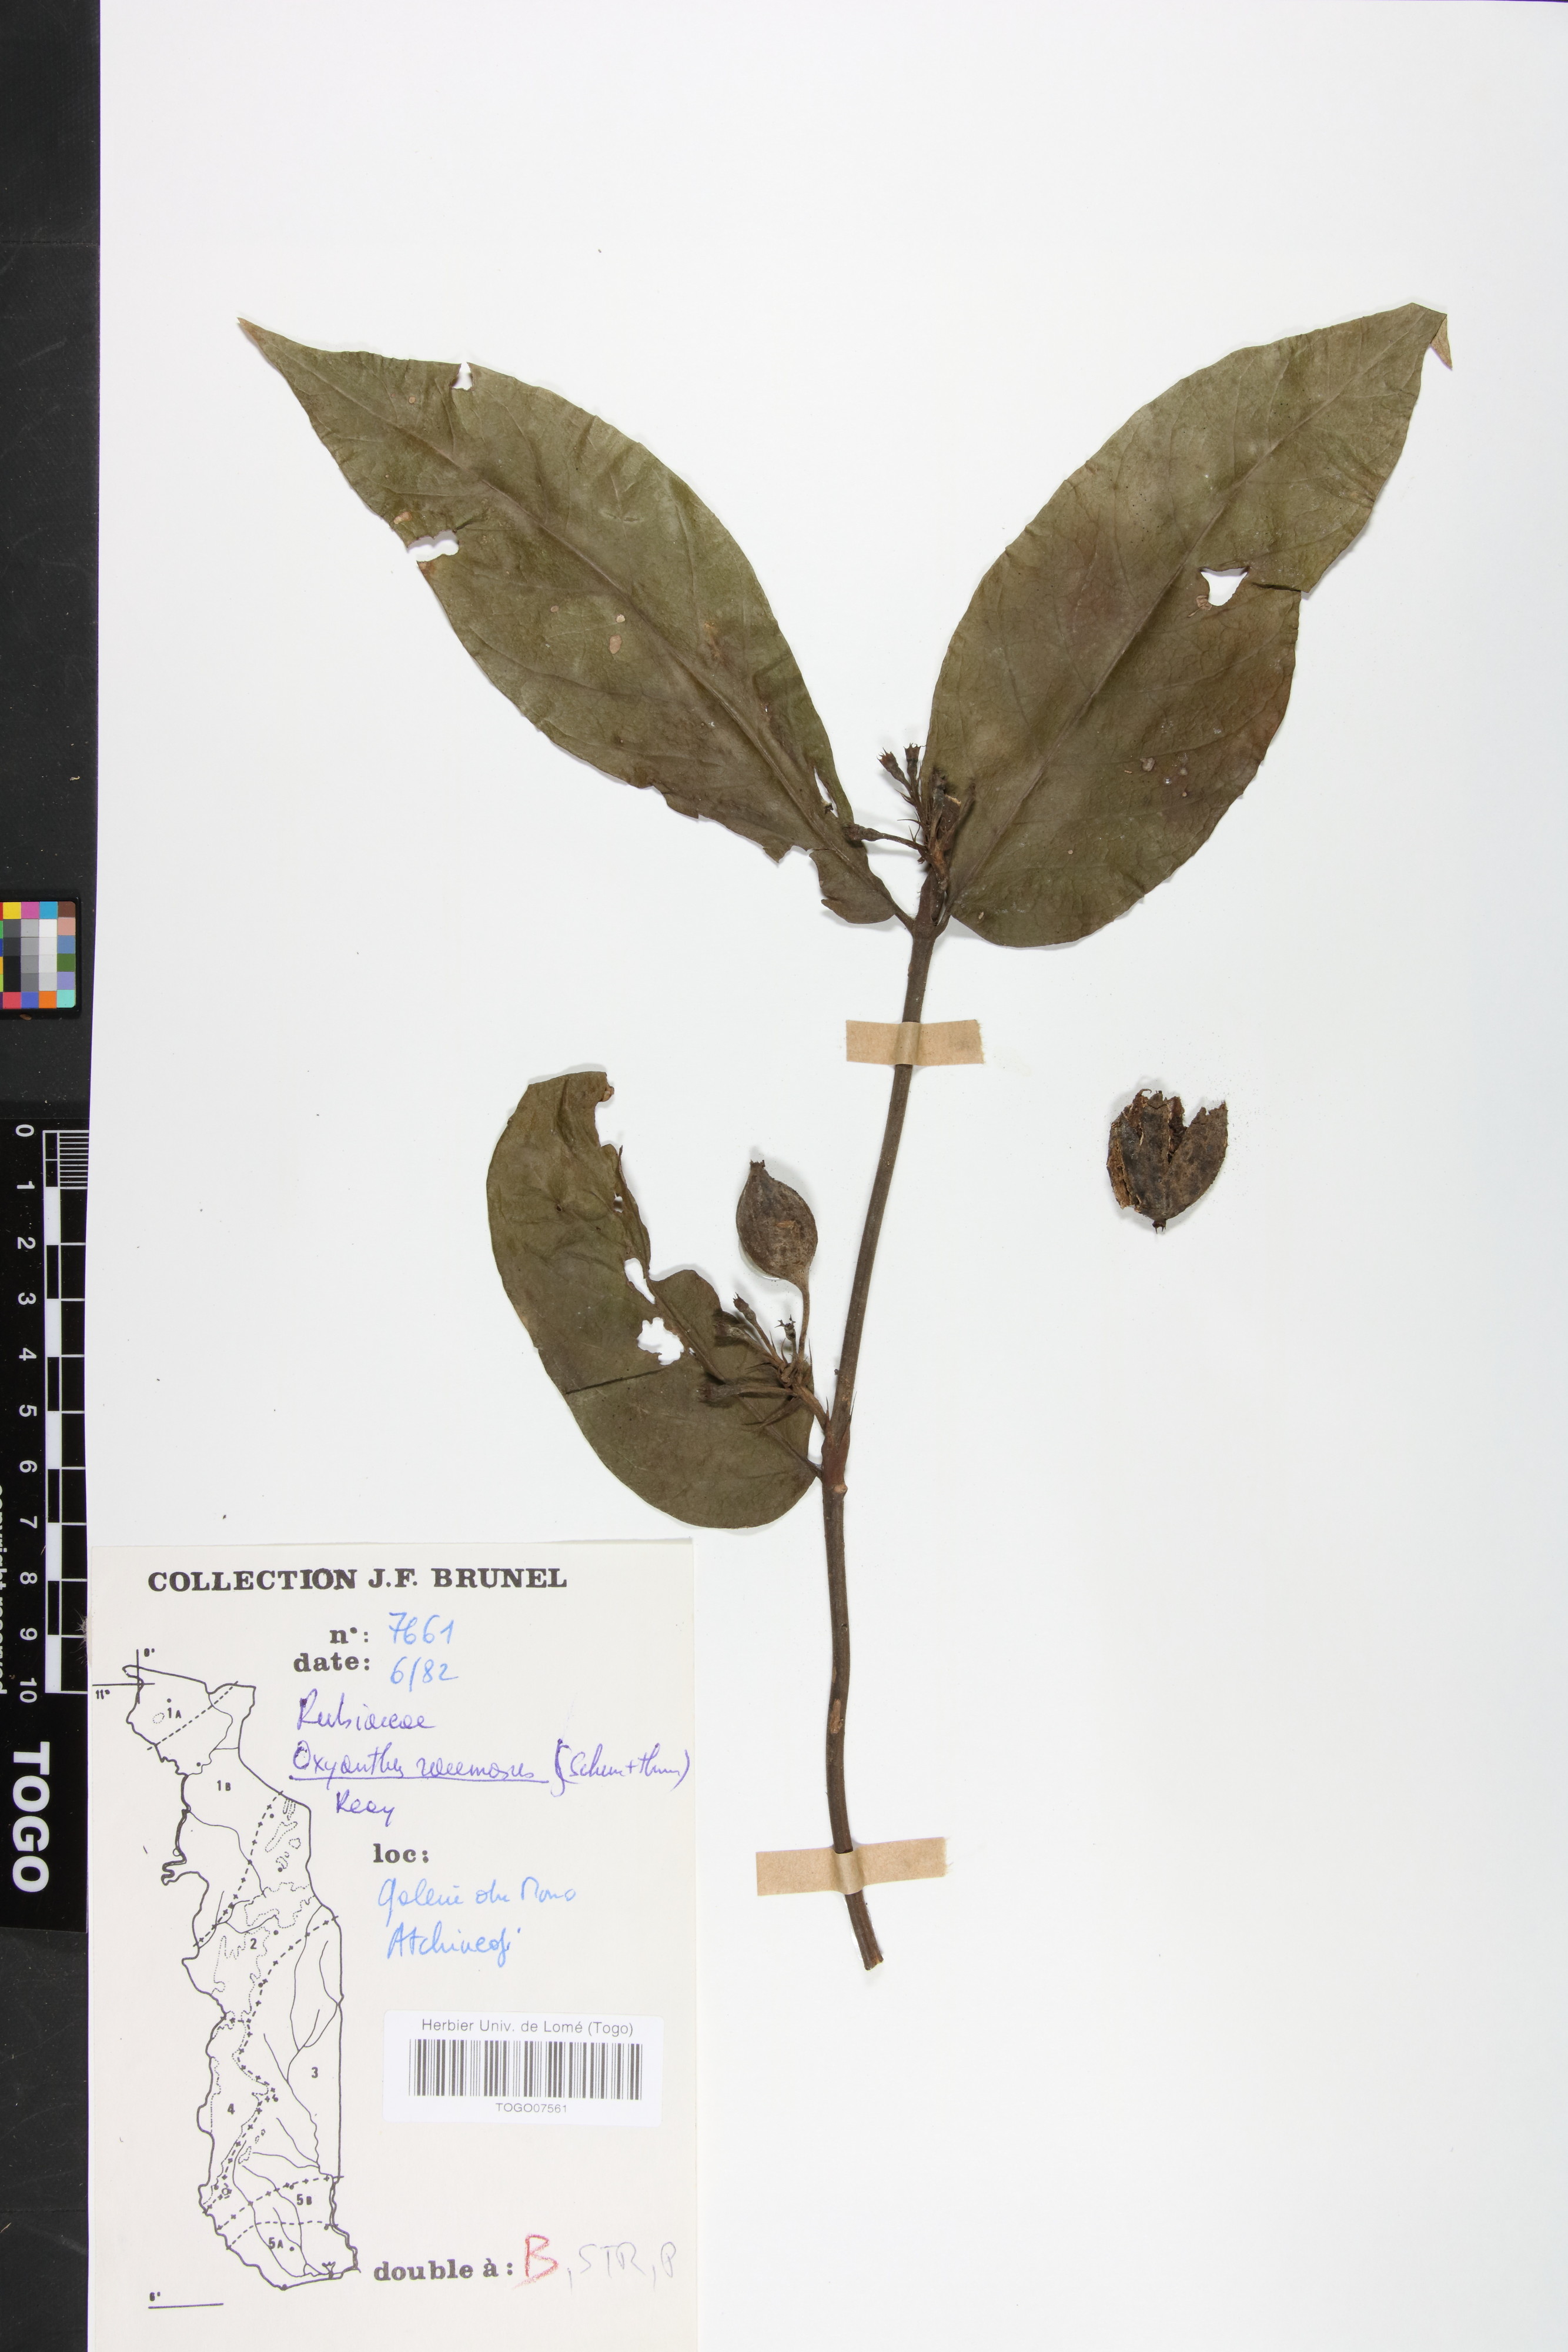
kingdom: Plantae
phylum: Tracheophyta
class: Magnoliopsida
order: Gentianales
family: Rubiaceae
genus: Oxyanthus
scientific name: Oxyanthus racemosus
